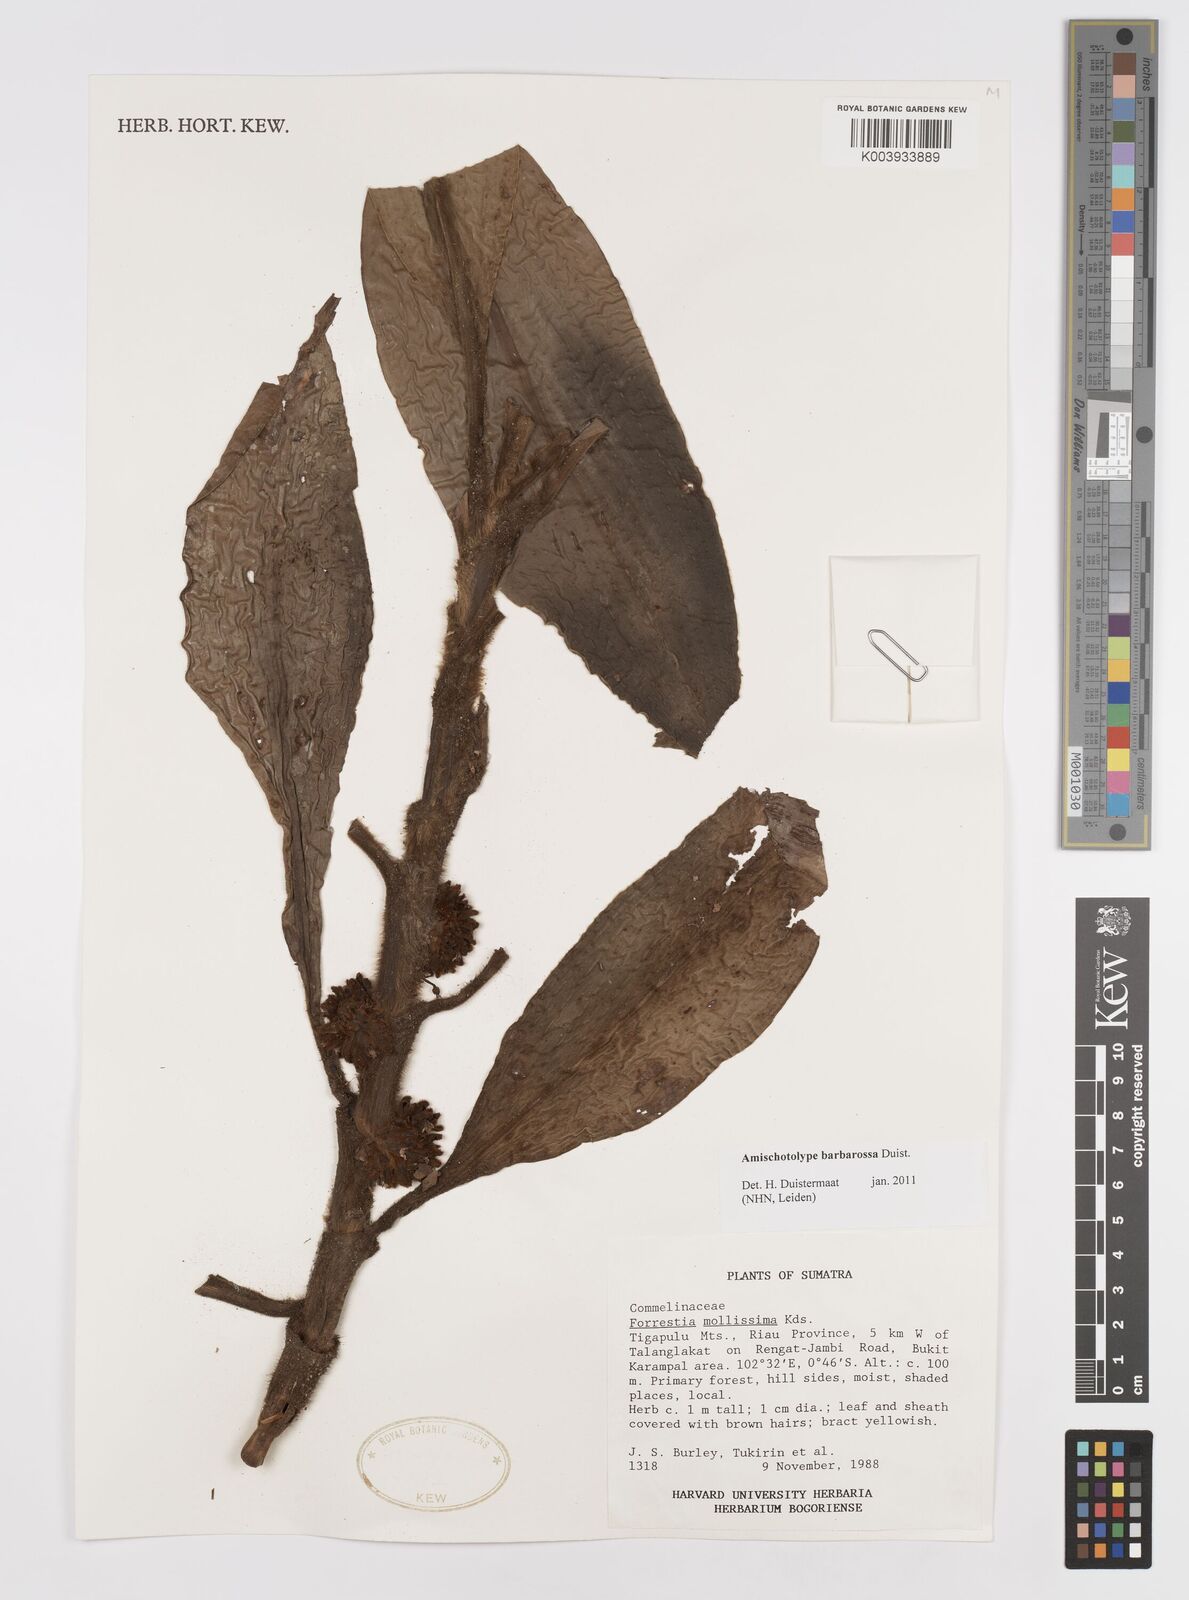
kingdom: Plantae
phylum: Tracheophyta
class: Liliopsida
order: Commelinales
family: Commelinaceae
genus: Amischotolype
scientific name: Amischotolype barbarossa
